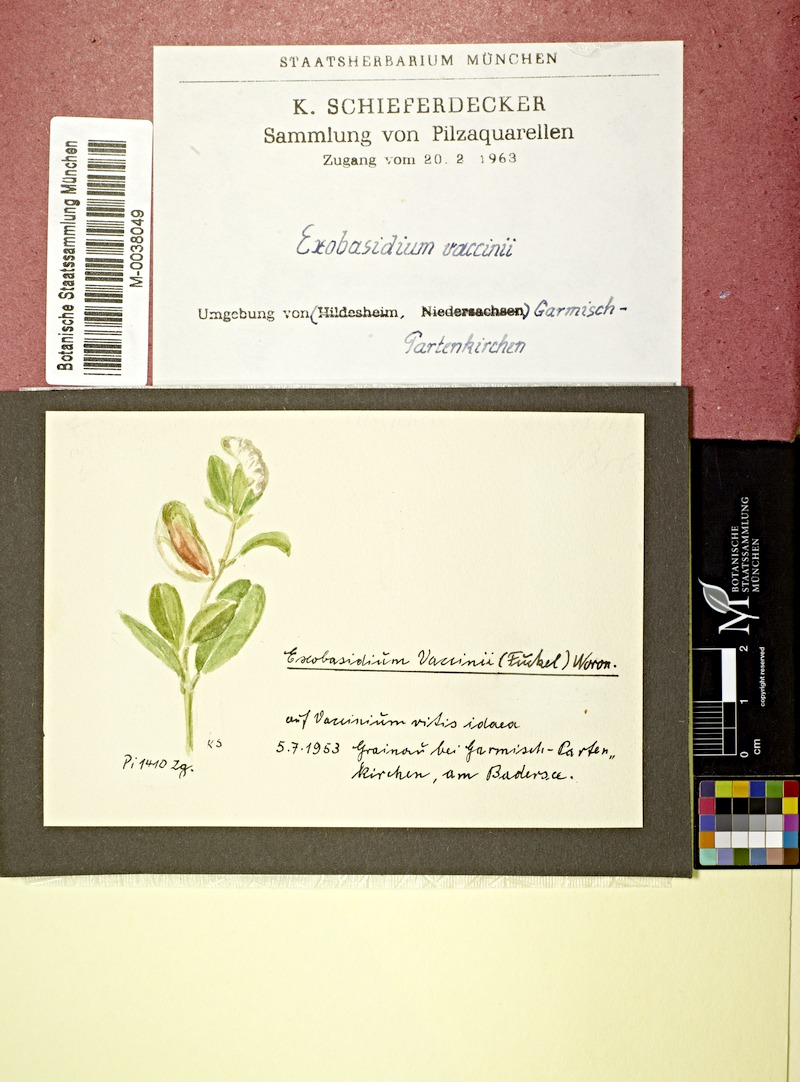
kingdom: Fungi
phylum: Basidiomycota
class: Exobasidiomycetes
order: Exobasidiales
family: Exobasidiaceae
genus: Exobasidium
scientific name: Exobasidium vaccinii
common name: Cowberry redleaf
